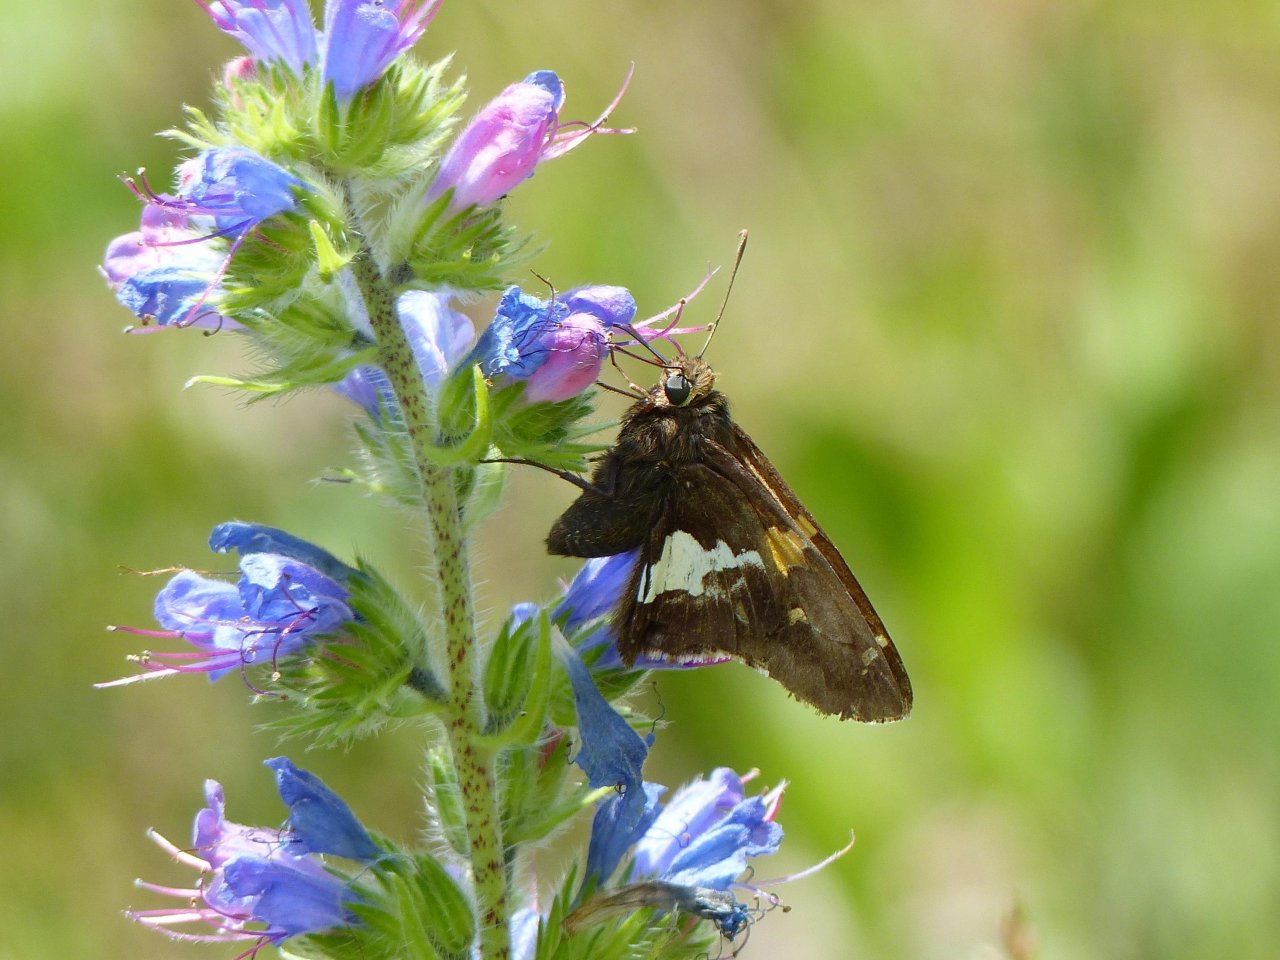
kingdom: Animalia
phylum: Arthropoda
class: Insecta
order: Lepidoptera
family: Hesperiidae
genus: Epargyreus
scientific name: Epargyreus clarus
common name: Silver-spotted Skipper
